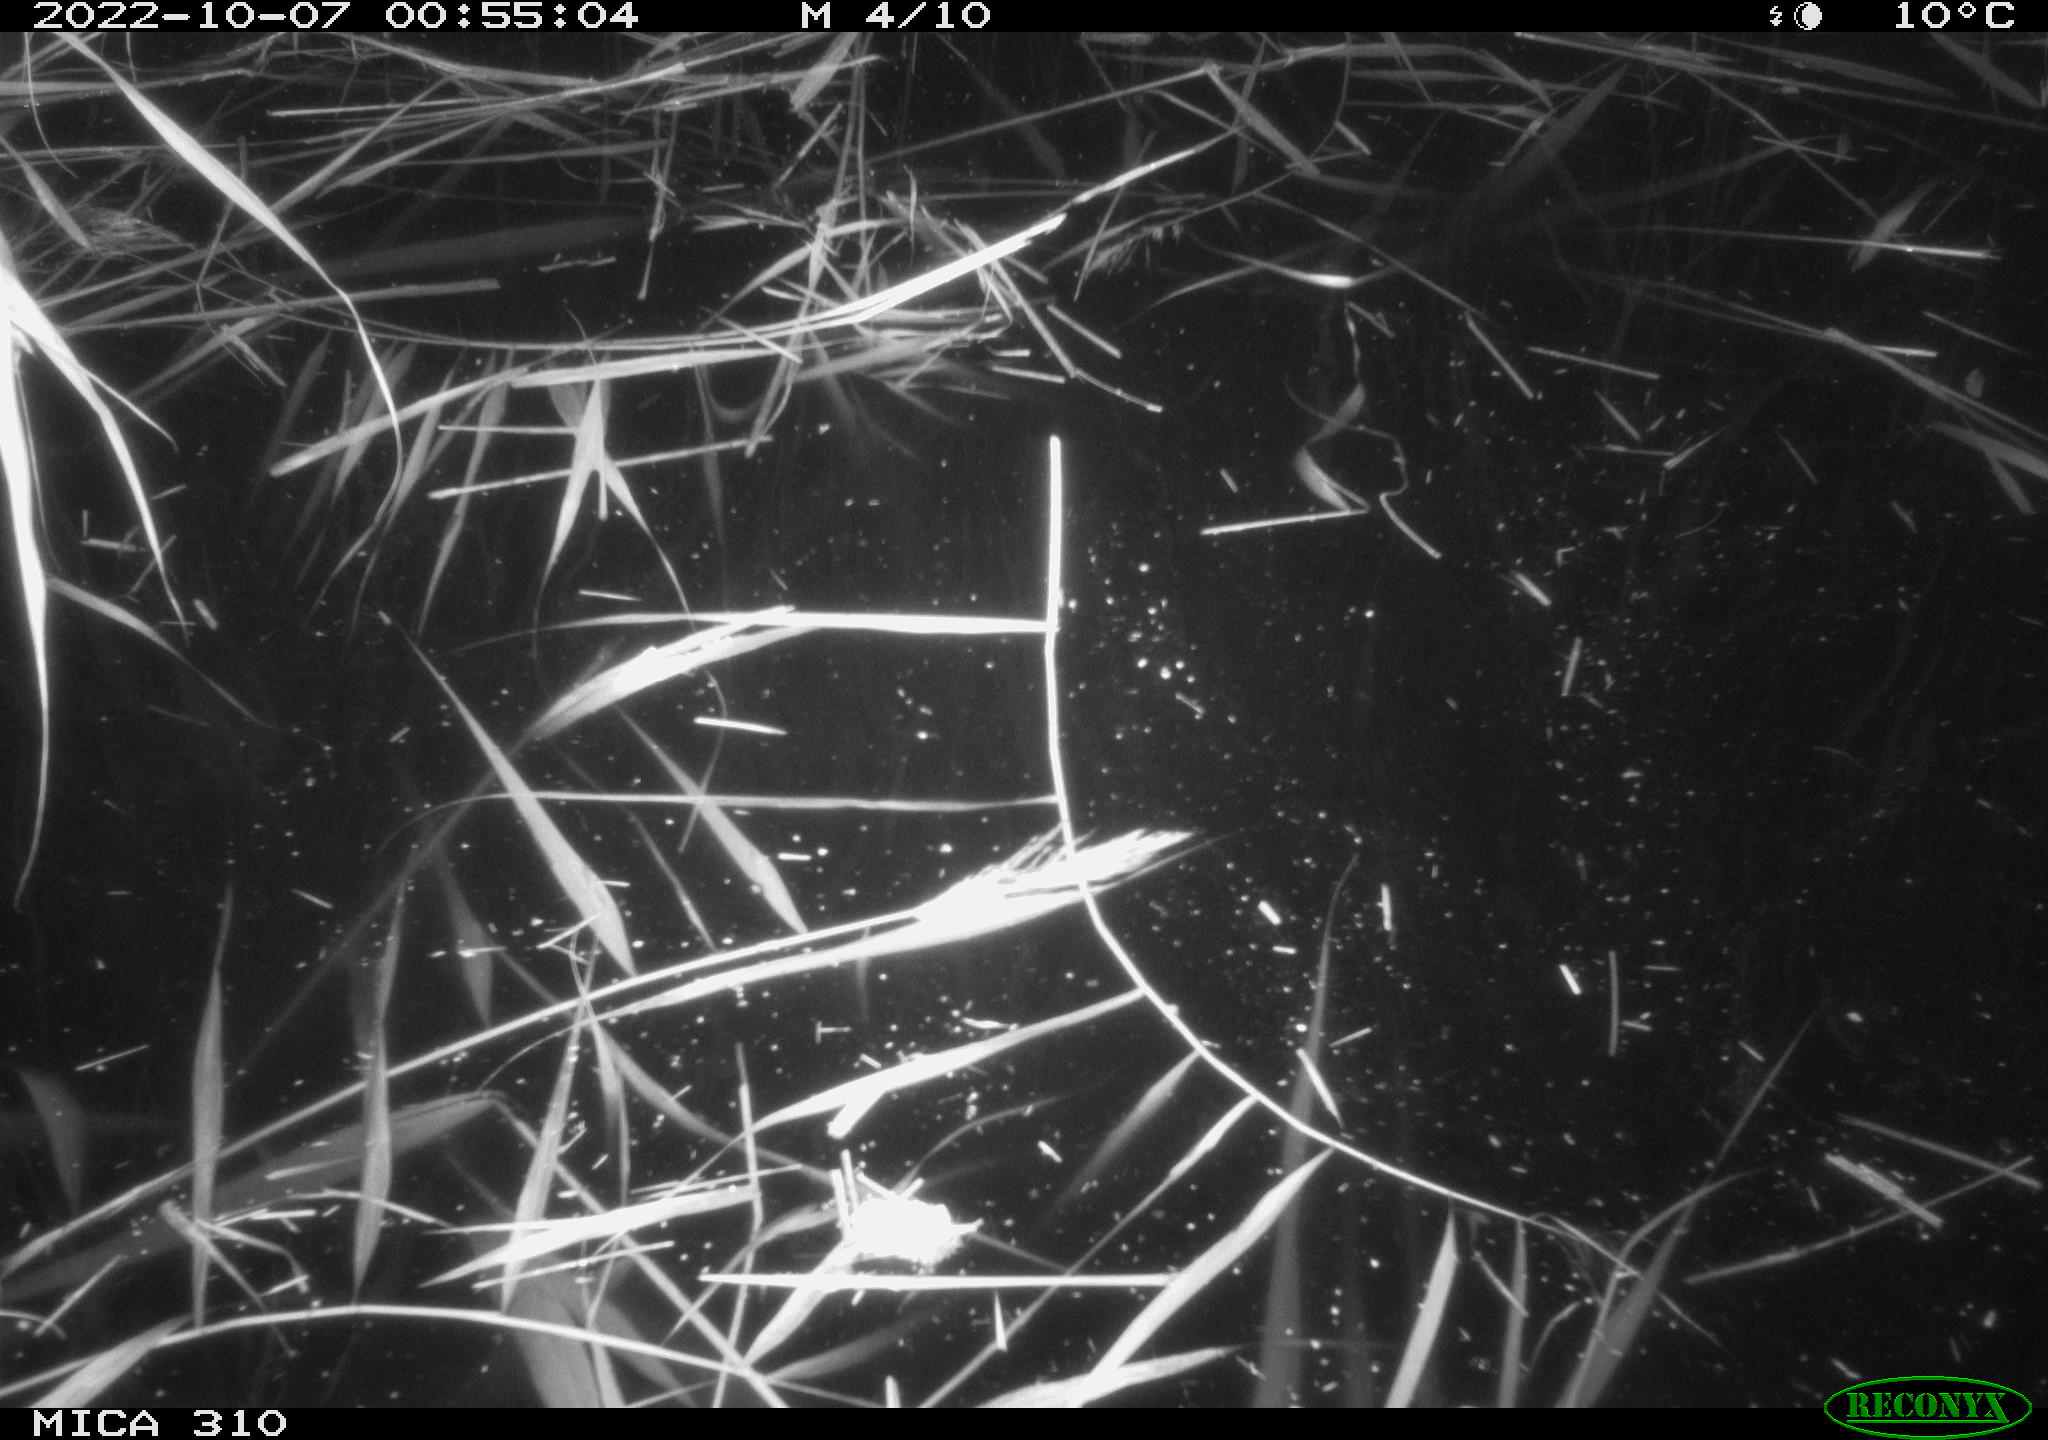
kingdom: Animalia
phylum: Chordata
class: Aves
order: Anseriformes
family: Anatidae
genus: Anas
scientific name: Anas
